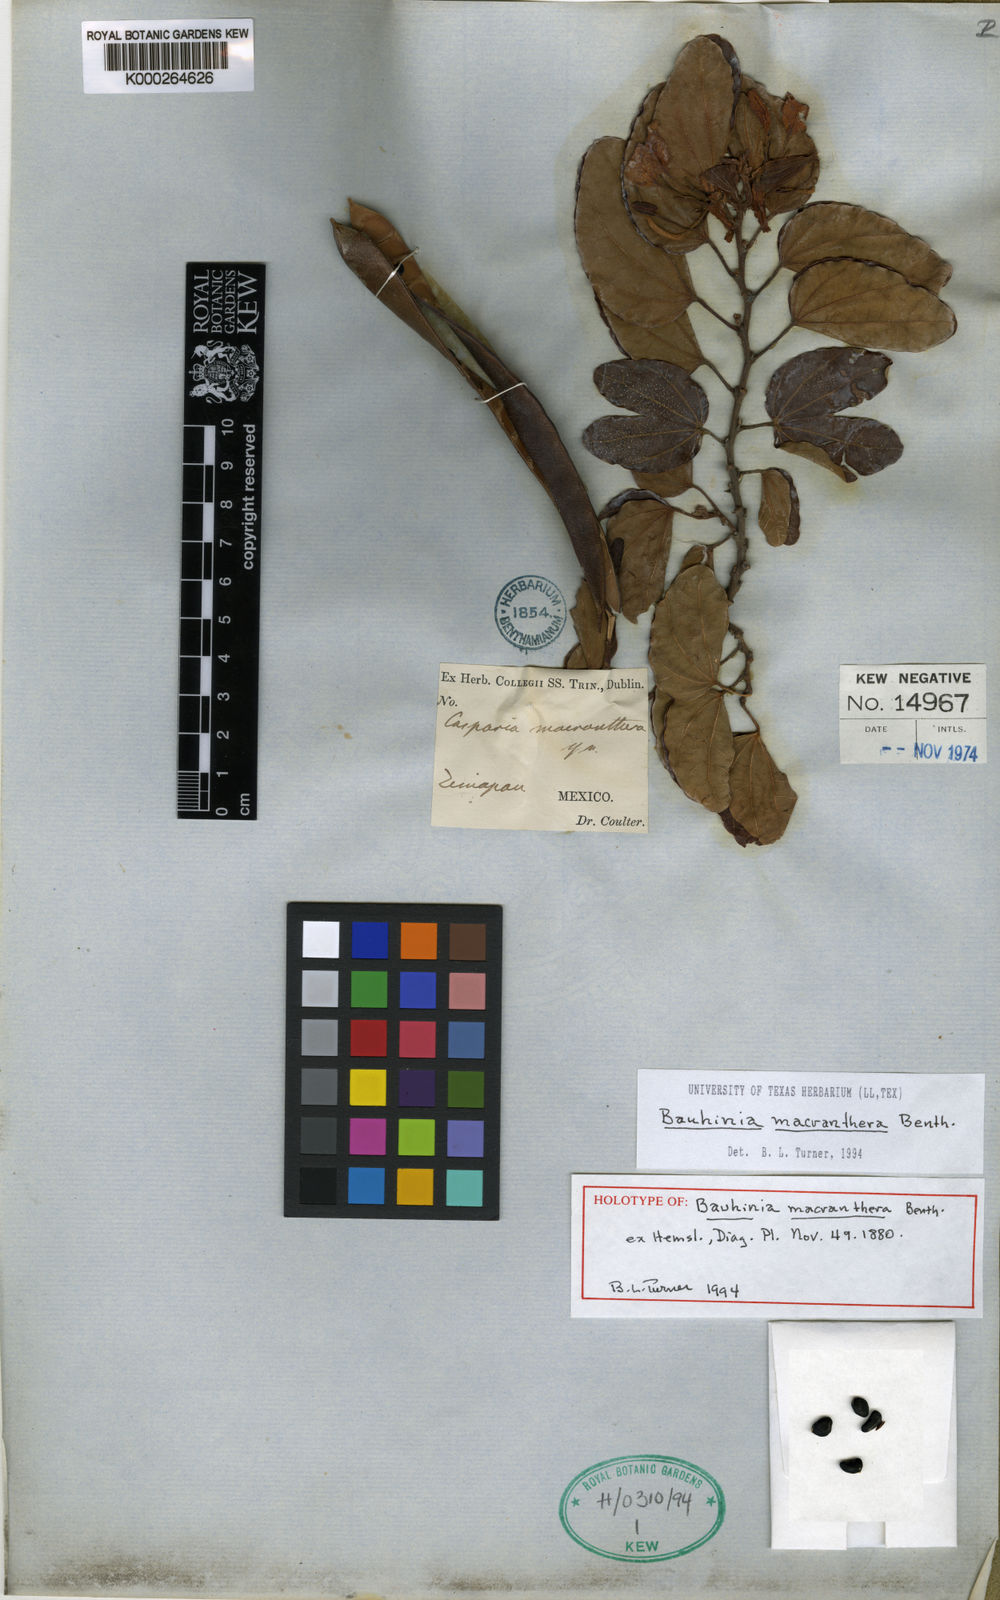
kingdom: Plantae
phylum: Tracheophyta
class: Magnoliopsida
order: Fabales
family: Fabaceae
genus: Bauhinia
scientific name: Bauhinia
